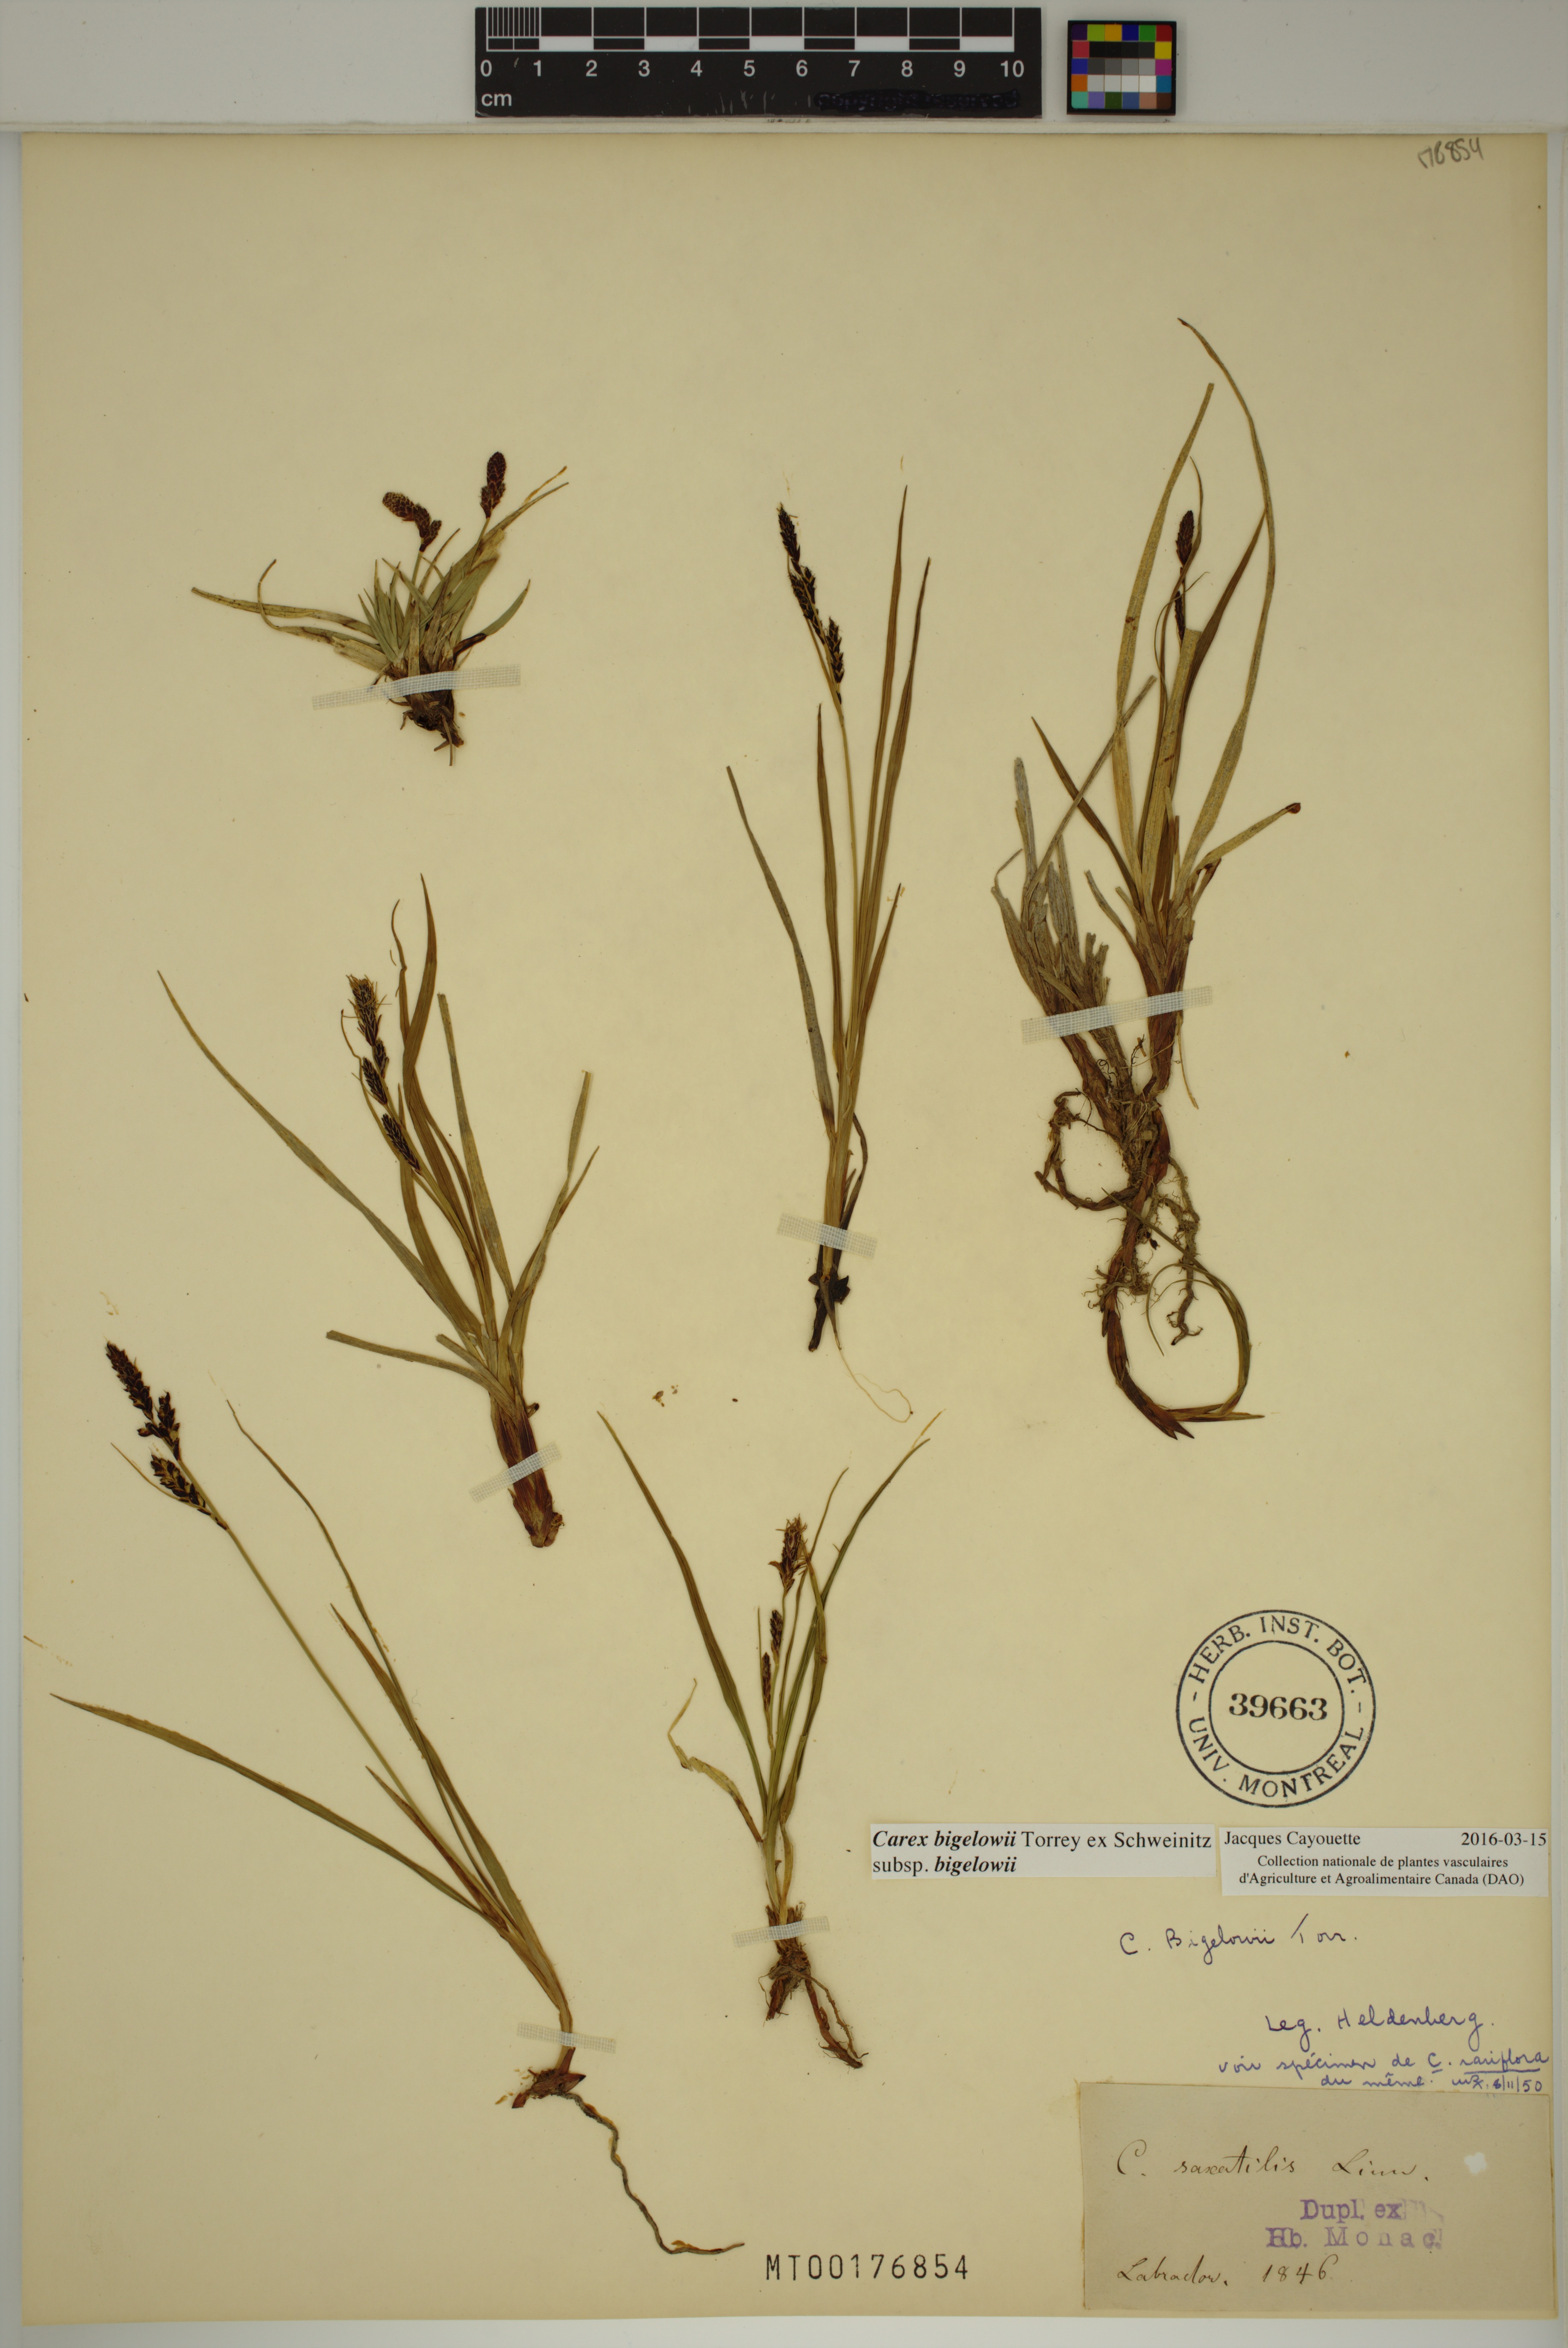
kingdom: Plantae
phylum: Tracheophyta
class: Liliopsida
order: Poales
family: Cyperaceae
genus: Carex
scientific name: Carex bigelowii
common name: Stiff sedge
